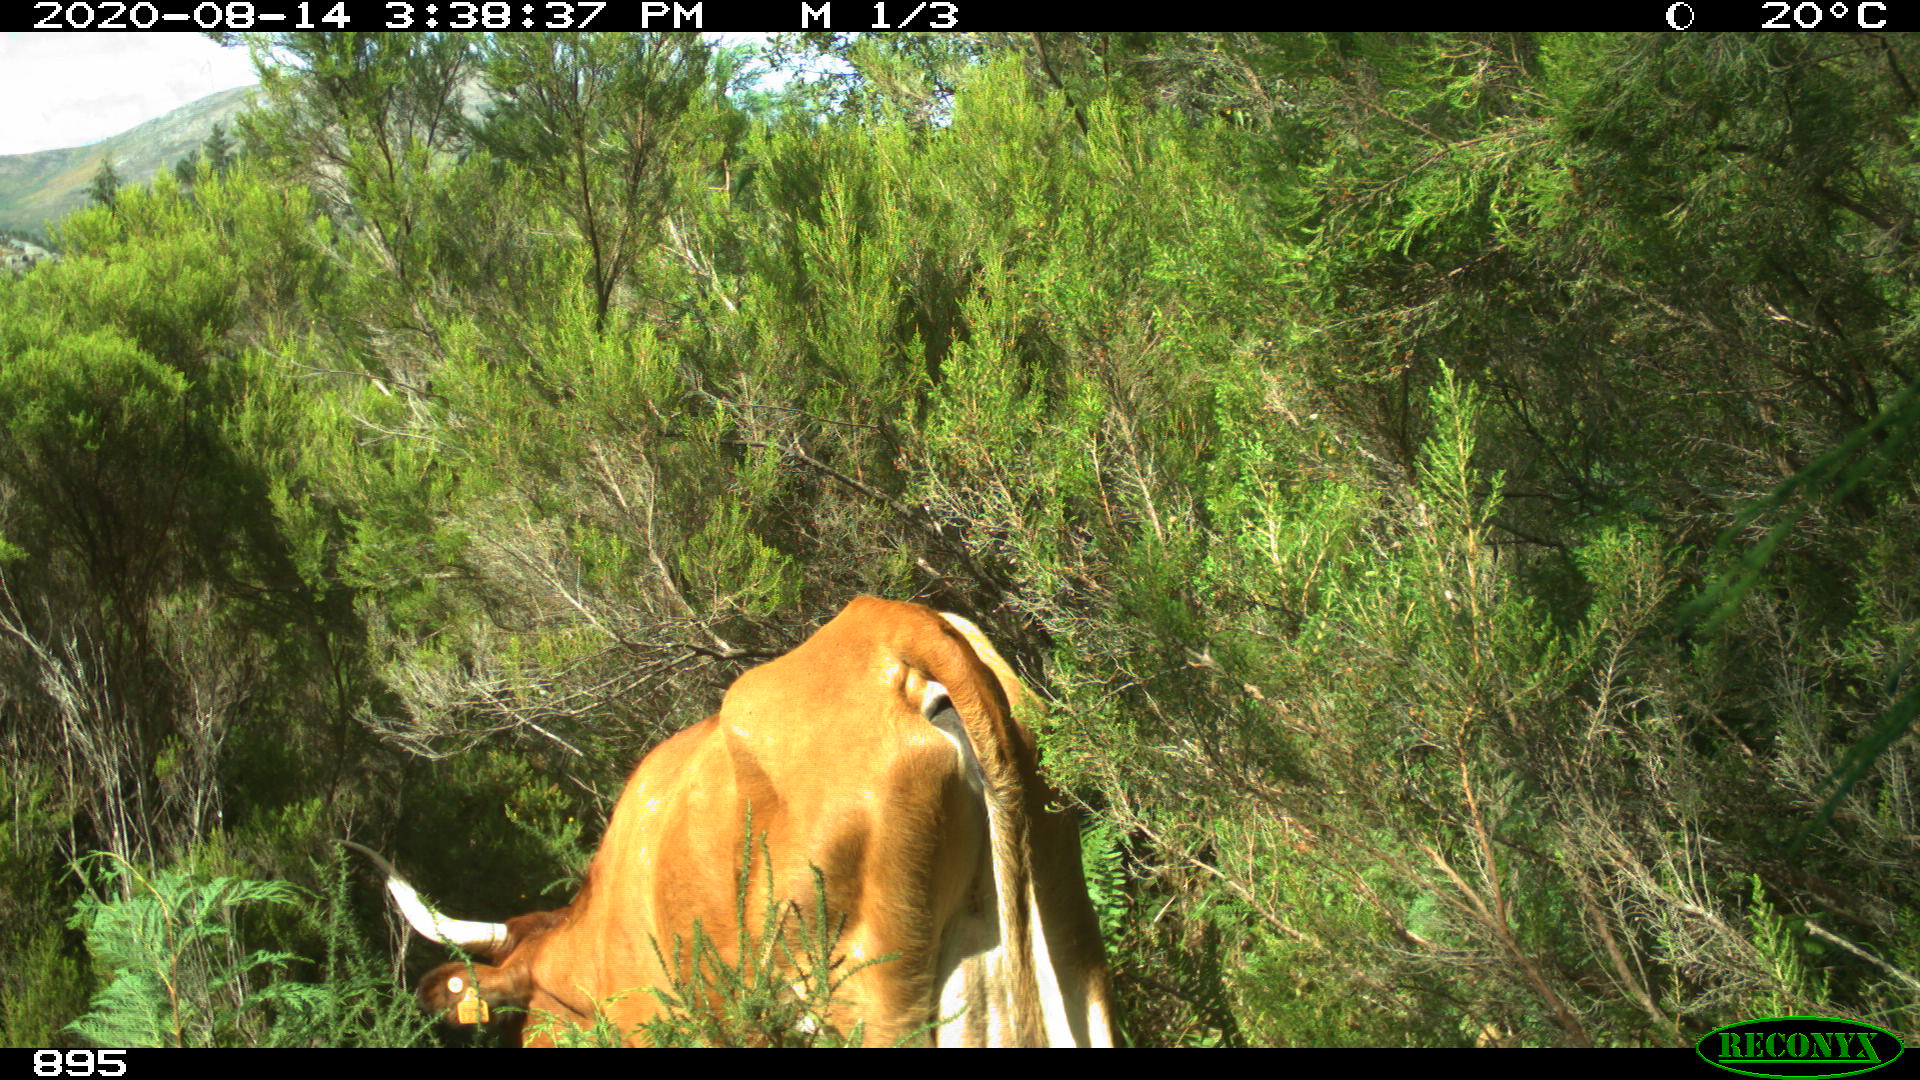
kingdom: Animalia
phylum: Chordata
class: Mammalia
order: Artiodactyla
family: Bovidae
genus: Bos
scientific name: Bos taurus
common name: Domesticated cattle
